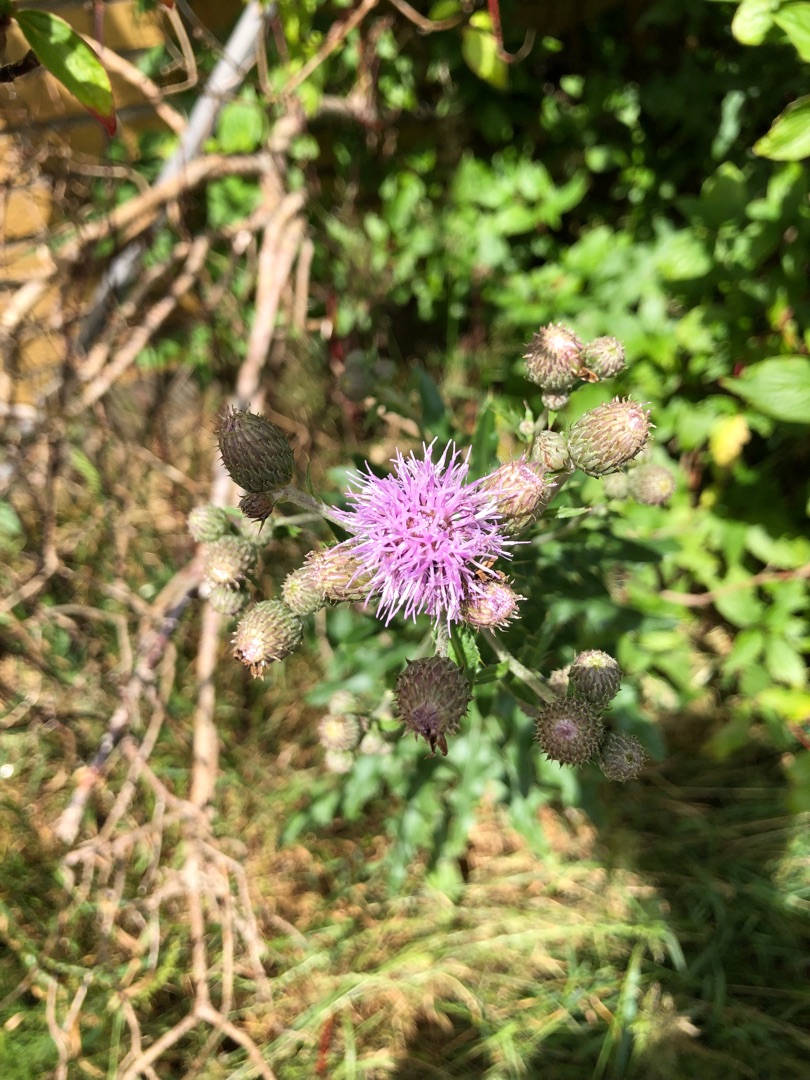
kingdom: Plantae
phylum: Tracheophyta
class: Magnoliopsida
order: Asterales
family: Asteraceae
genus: Cirsium
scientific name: Cirsium arvense
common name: Ager-tidsel
